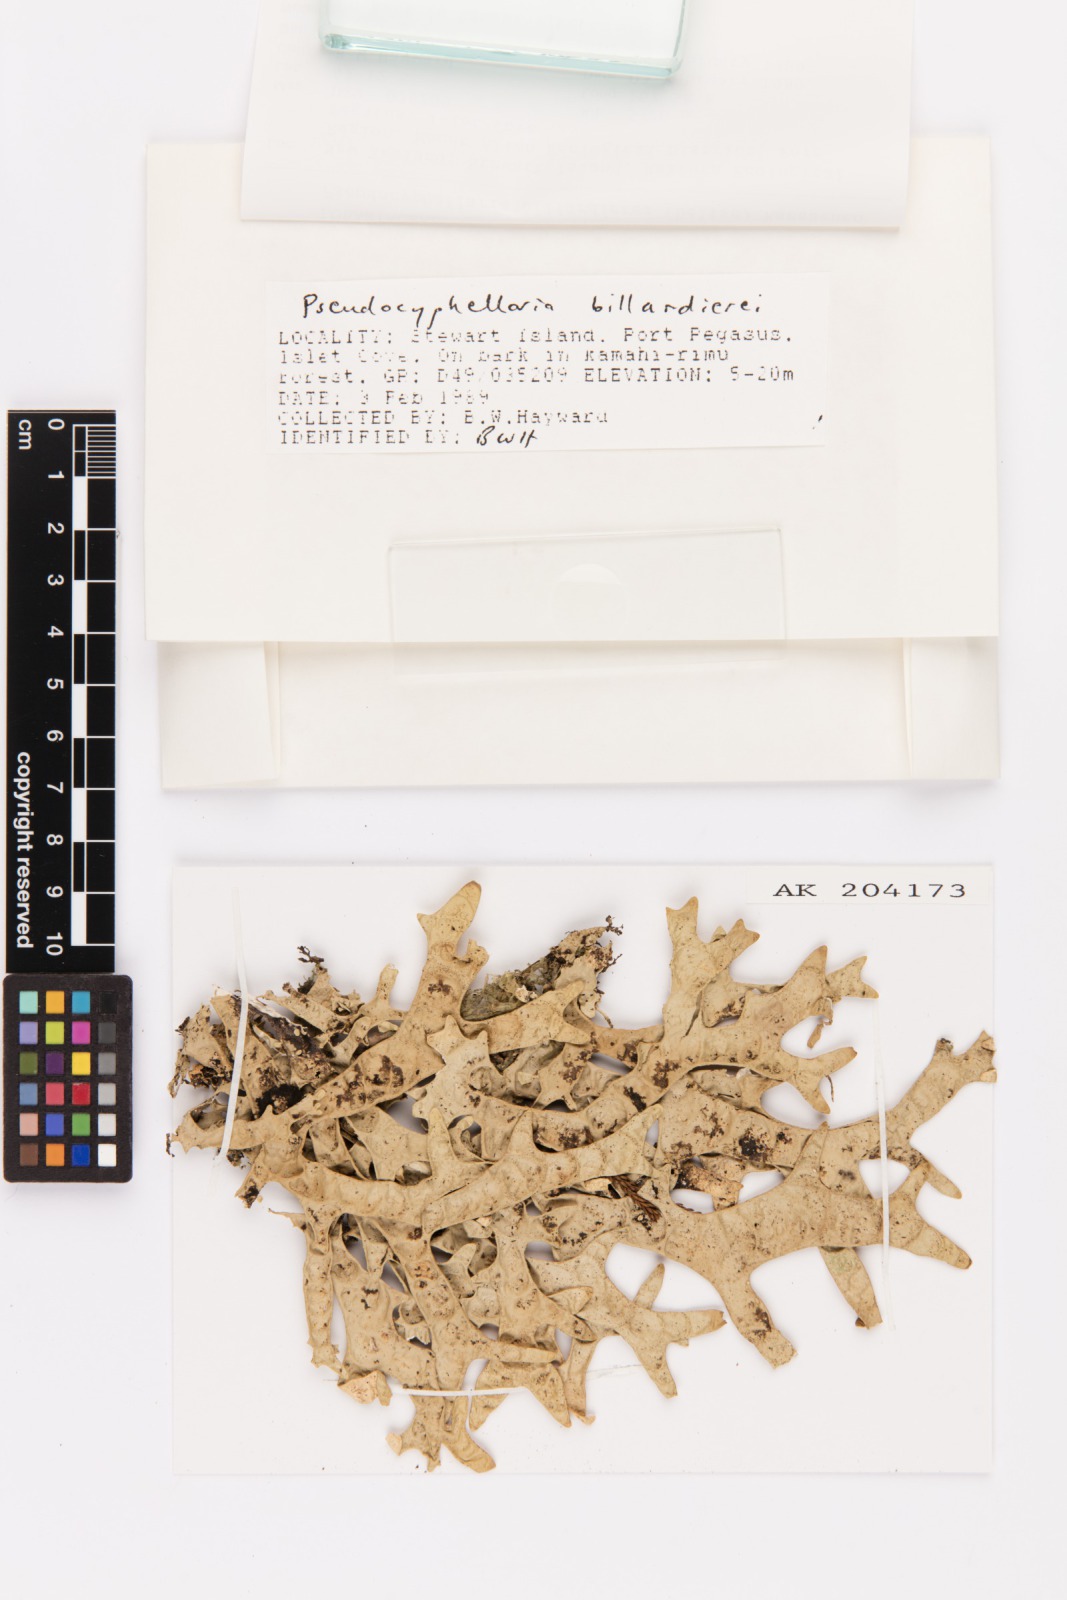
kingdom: Fungi
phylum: Ascomycota
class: Lecanoromycetes
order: Peltigerales
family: Lobariaceae
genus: Pseudocyphellaria
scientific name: Pseudocyphellaria billardierei
